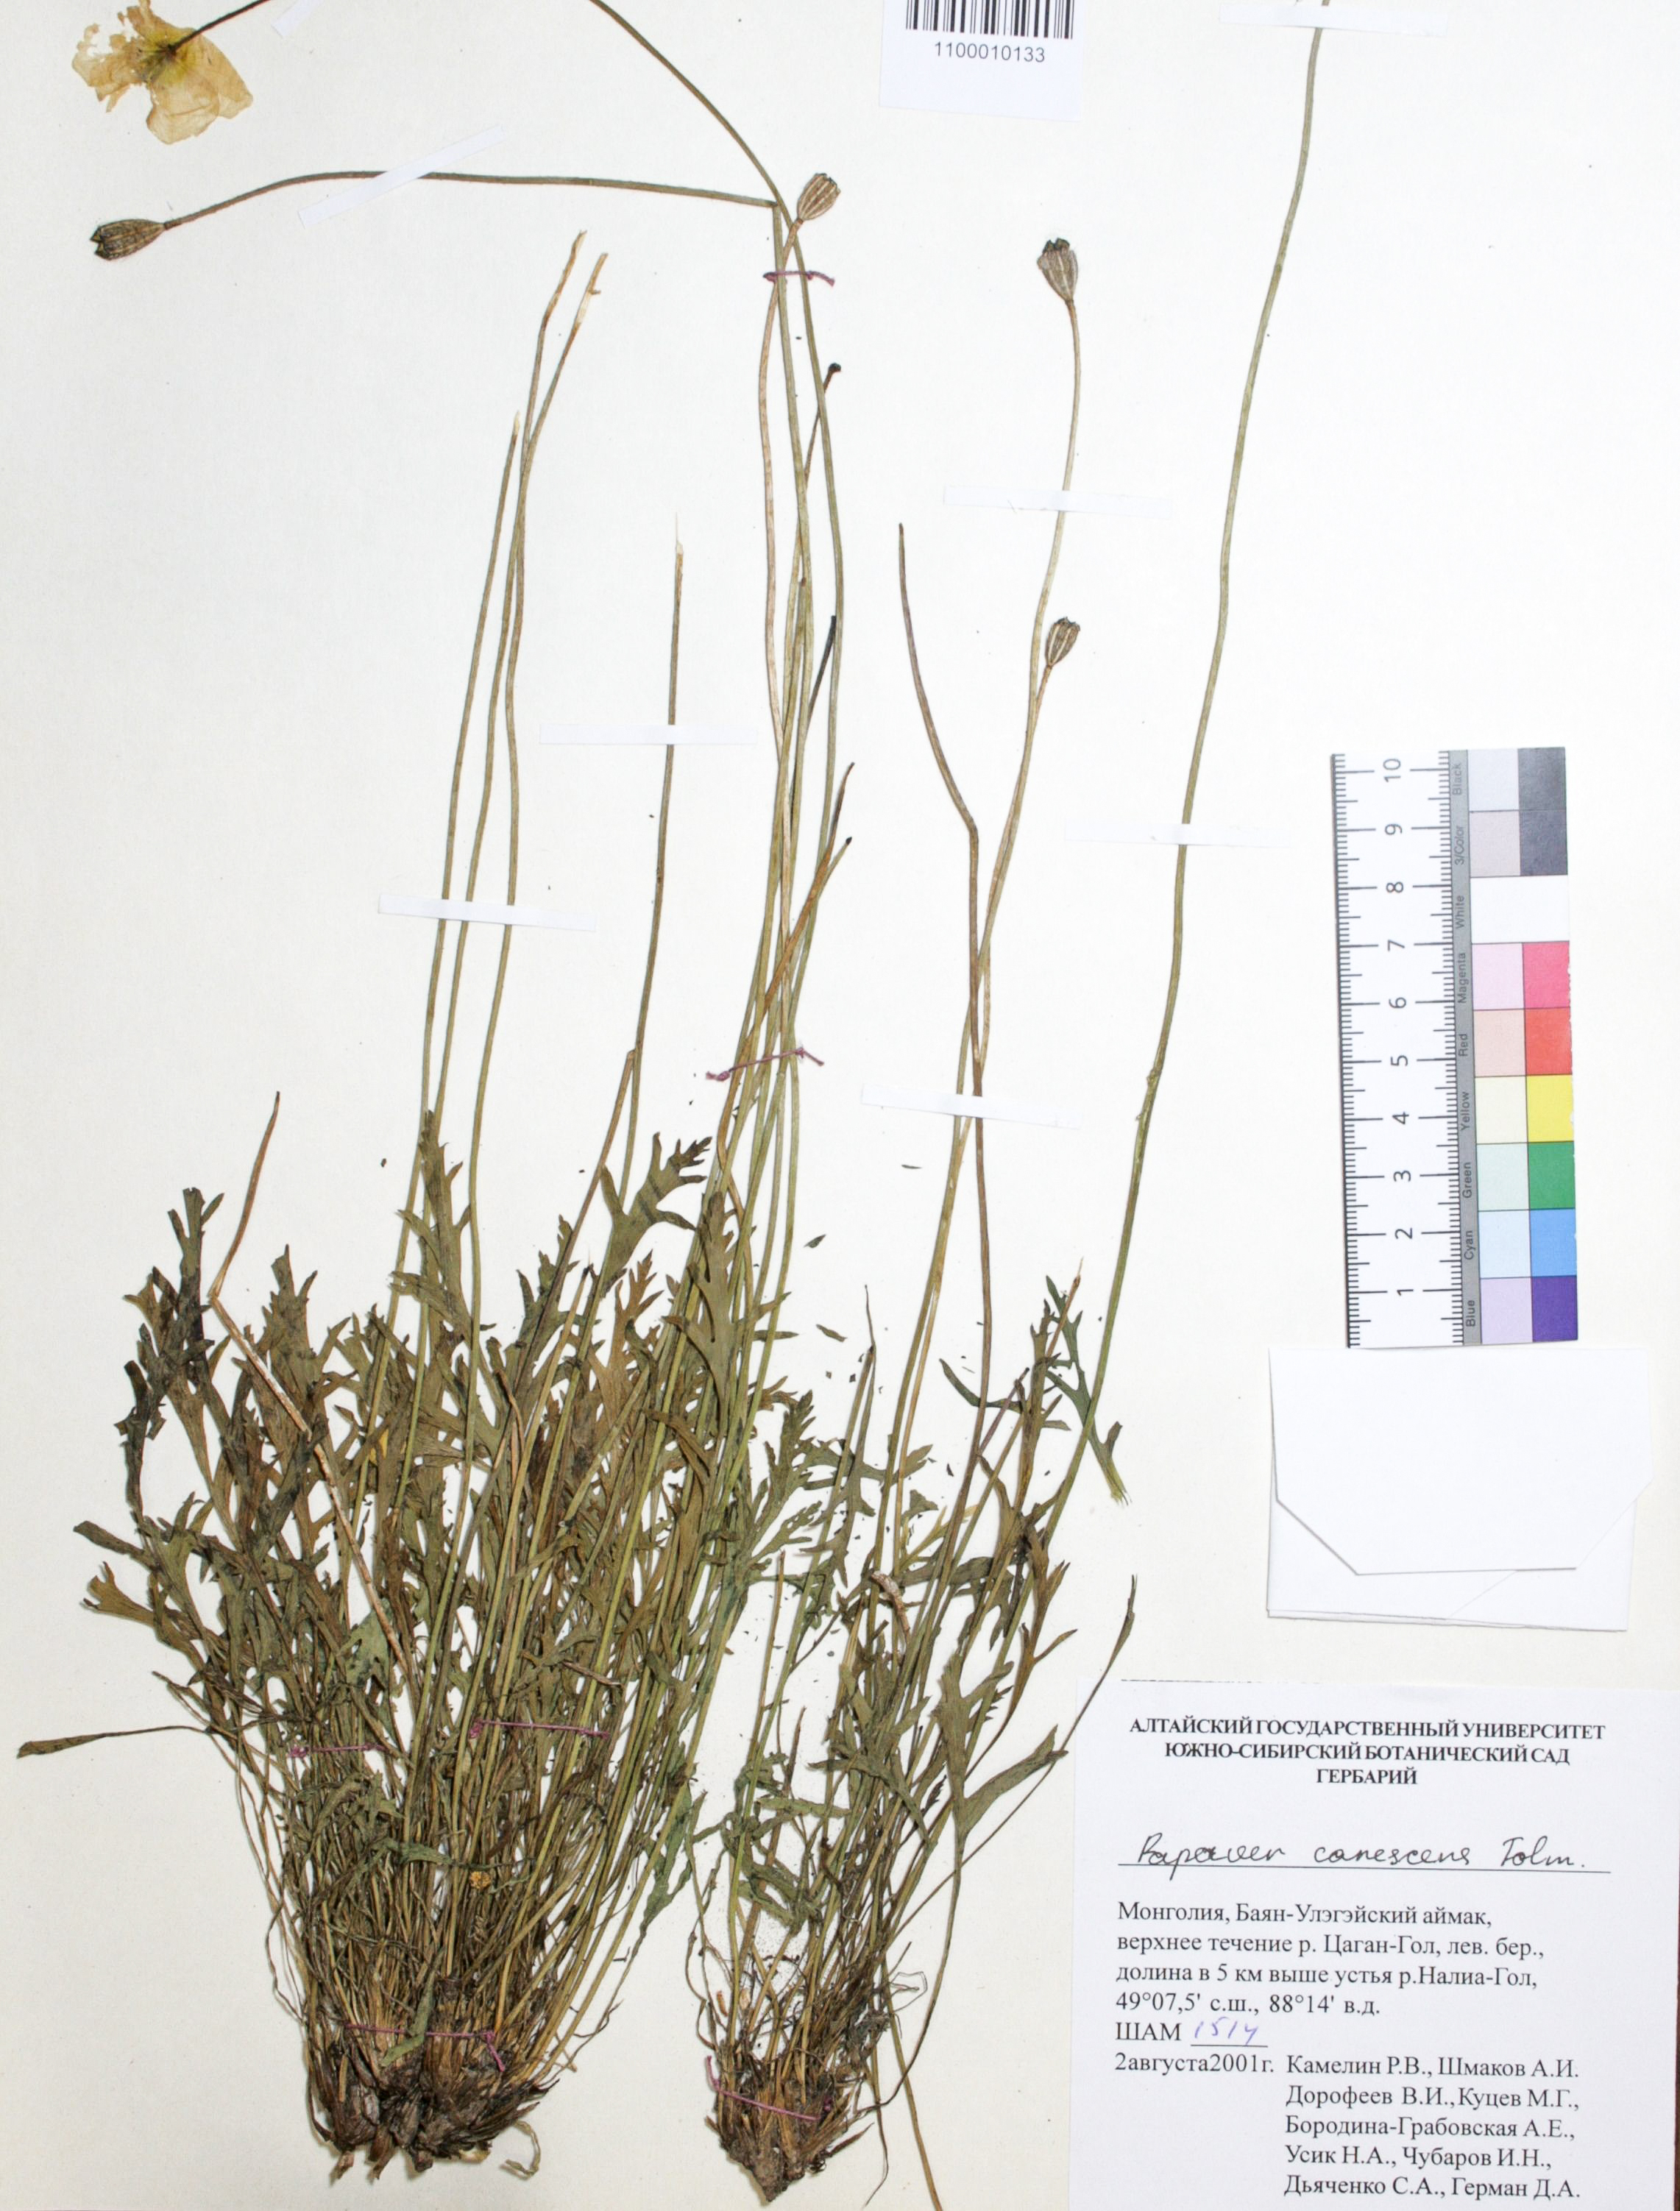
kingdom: Plantae
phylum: Tracheophyta
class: Magnoliopsida
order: Ranunculales
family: Papaveraceae
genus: Papaver
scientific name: Papaver canescens
